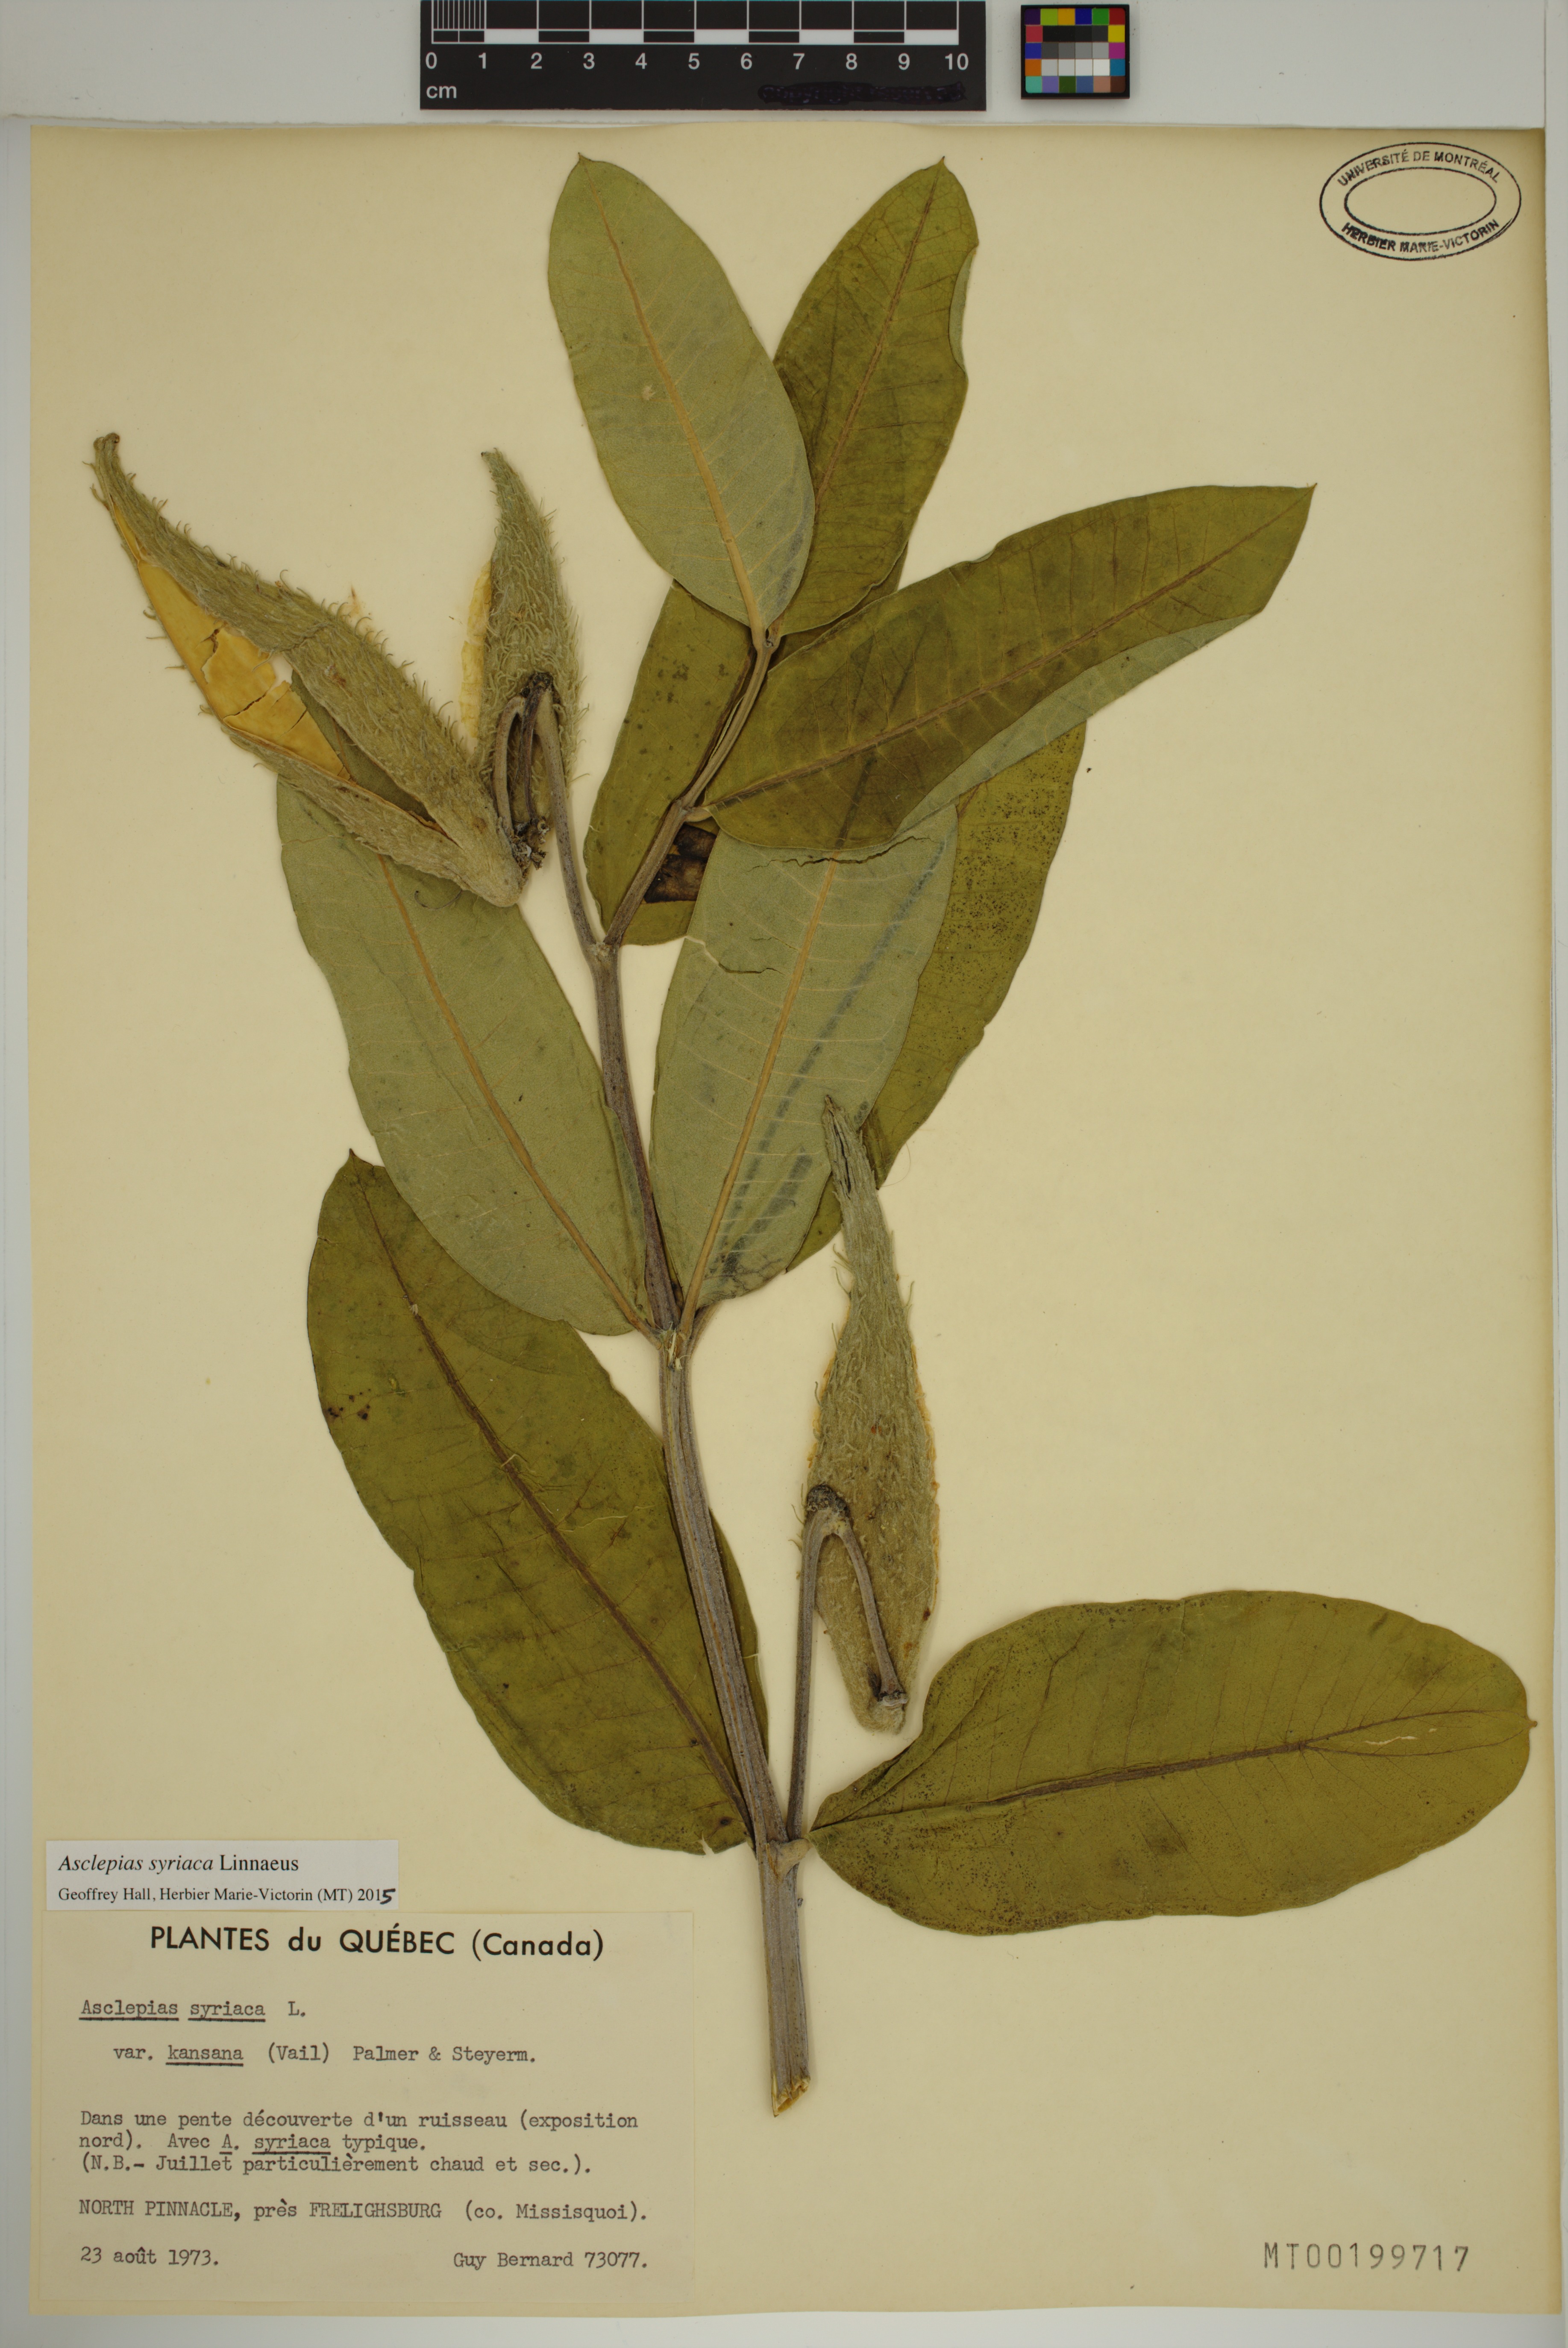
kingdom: Plantae
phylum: Tracheophyta
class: Magnoliopsida
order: Gentianales
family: Apocynaceae
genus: Asclepias
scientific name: Asclepias syriaca
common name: Common milkweed
